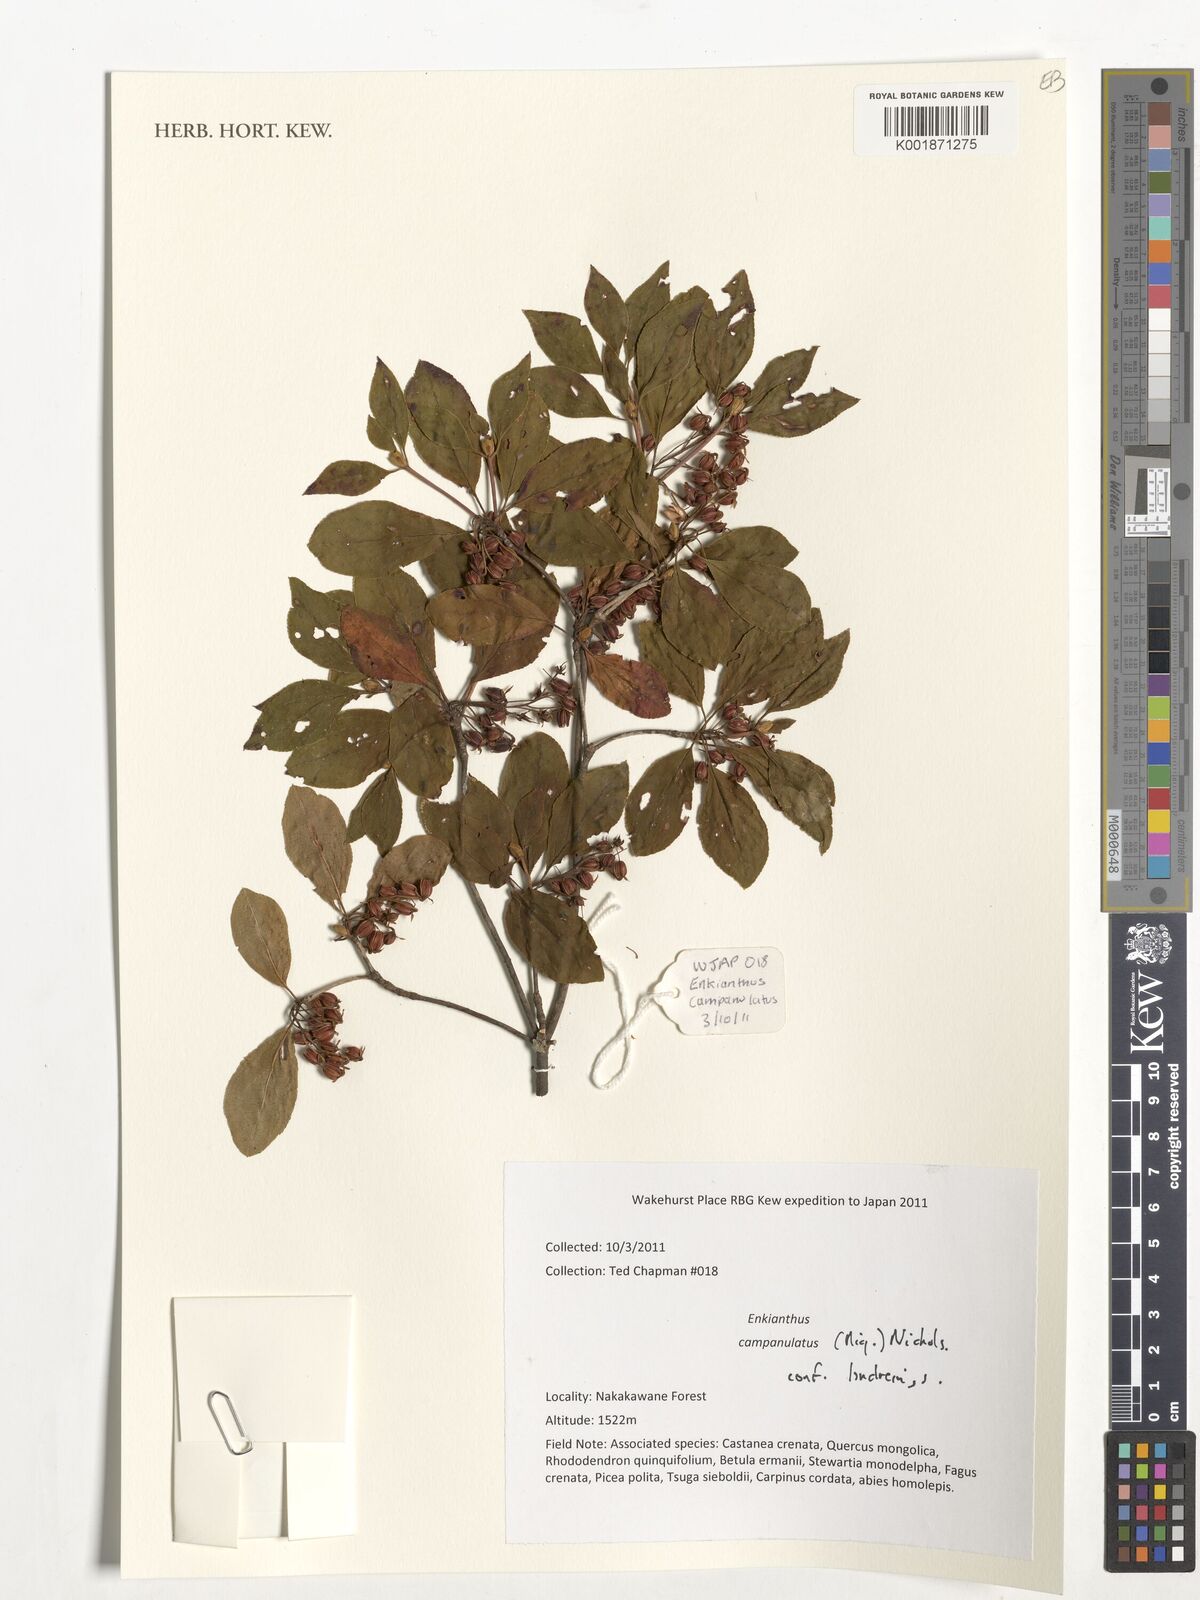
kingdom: Plantae
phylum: Tracheophyta
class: Magnoliopsida
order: Ericales
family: Ericaceae
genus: Enkianthus
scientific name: Enkianthus campanulatus
